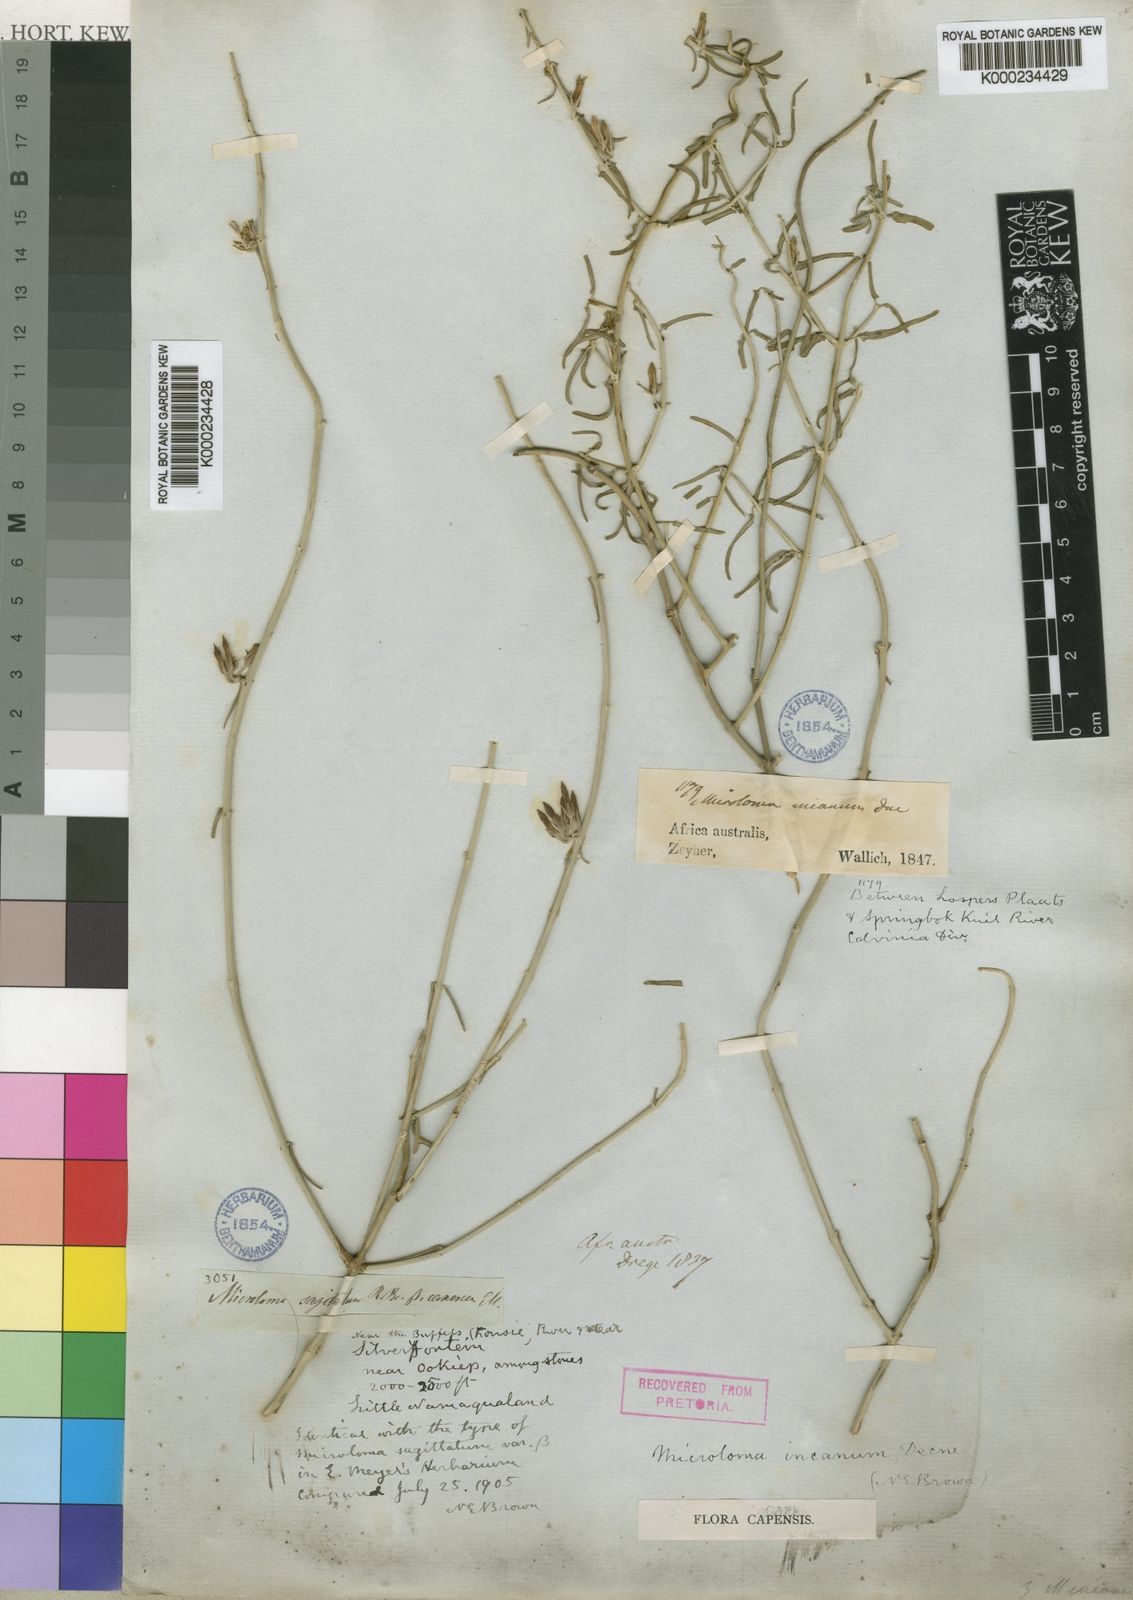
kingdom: Plantae
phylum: Tracheophyta
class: Magnoliopsida
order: Gentianales
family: Apocynaceae
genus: Microloma
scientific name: Microloma incanum
